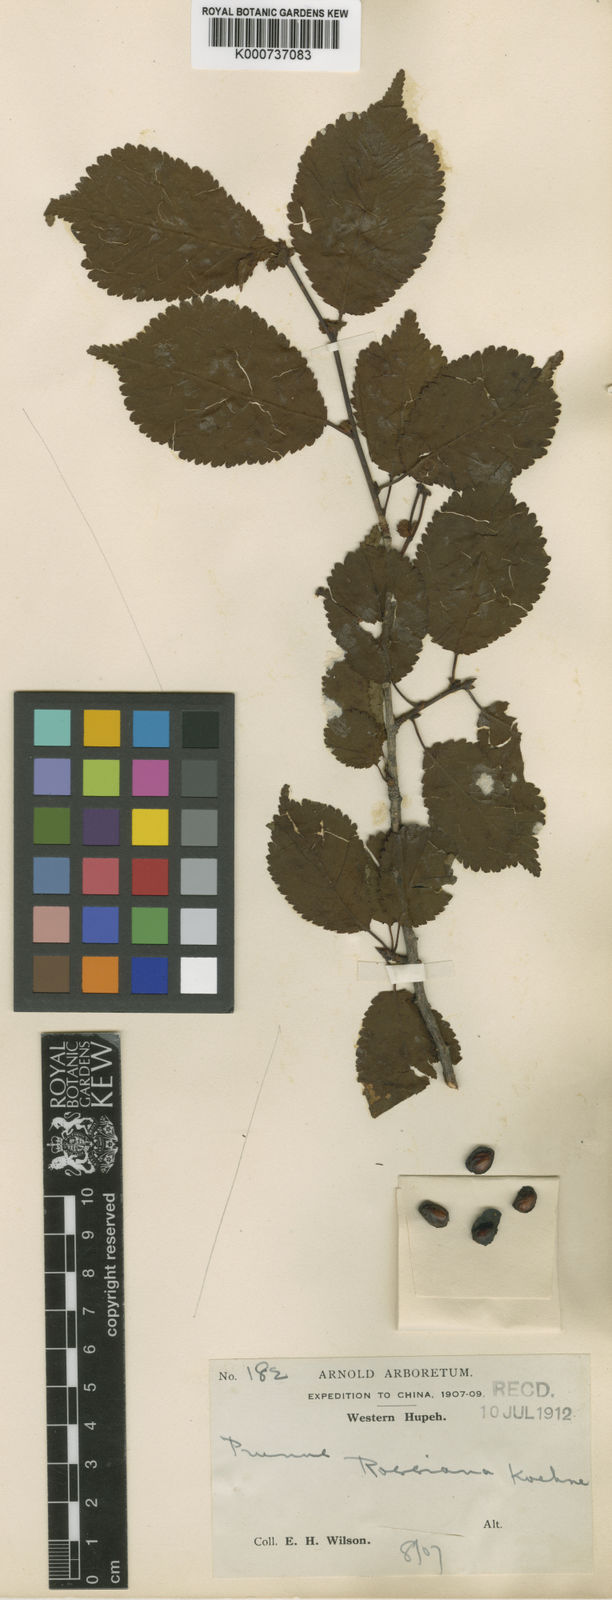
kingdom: Plantae
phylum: Tracheophyta
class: Magnoliopsida
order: Rosales
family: Rosaceae
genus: Prunus
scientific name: Prunus rossiana
